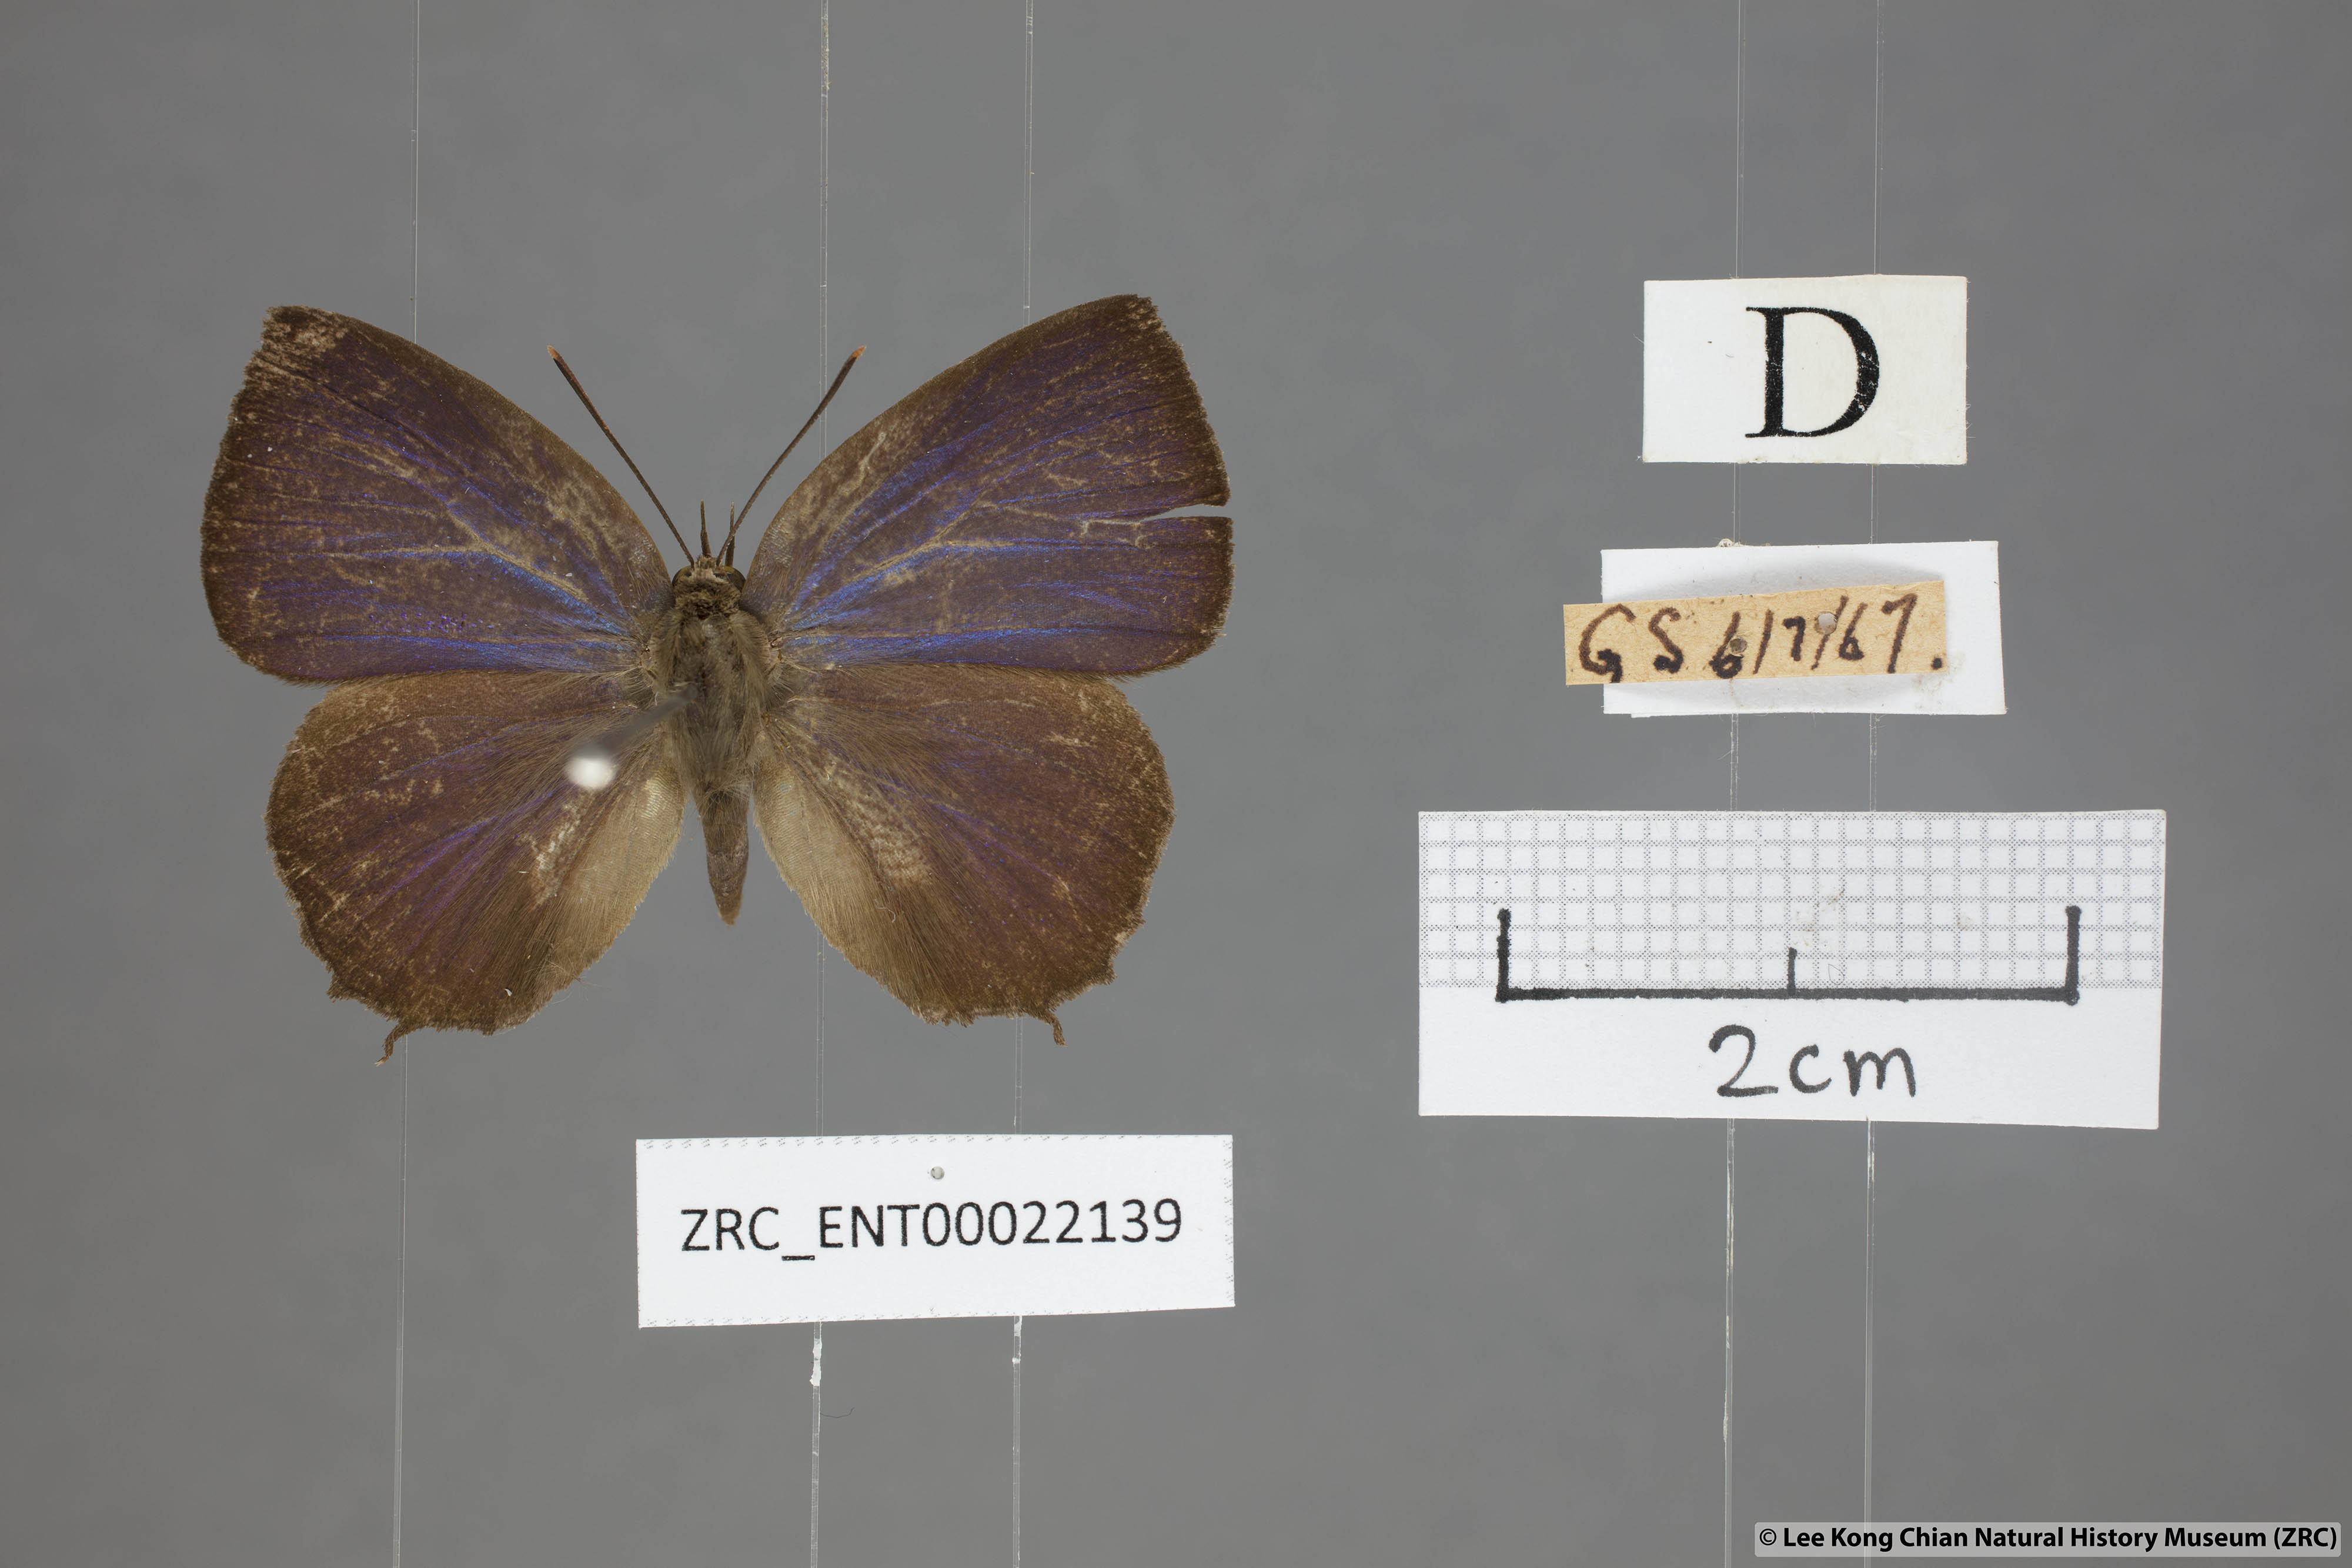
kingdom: Animalia
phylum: Arthropoda
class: Insecta
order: Lepidoptera
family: Lycaenidae
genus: Surendra
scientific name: Surendra vivarna
